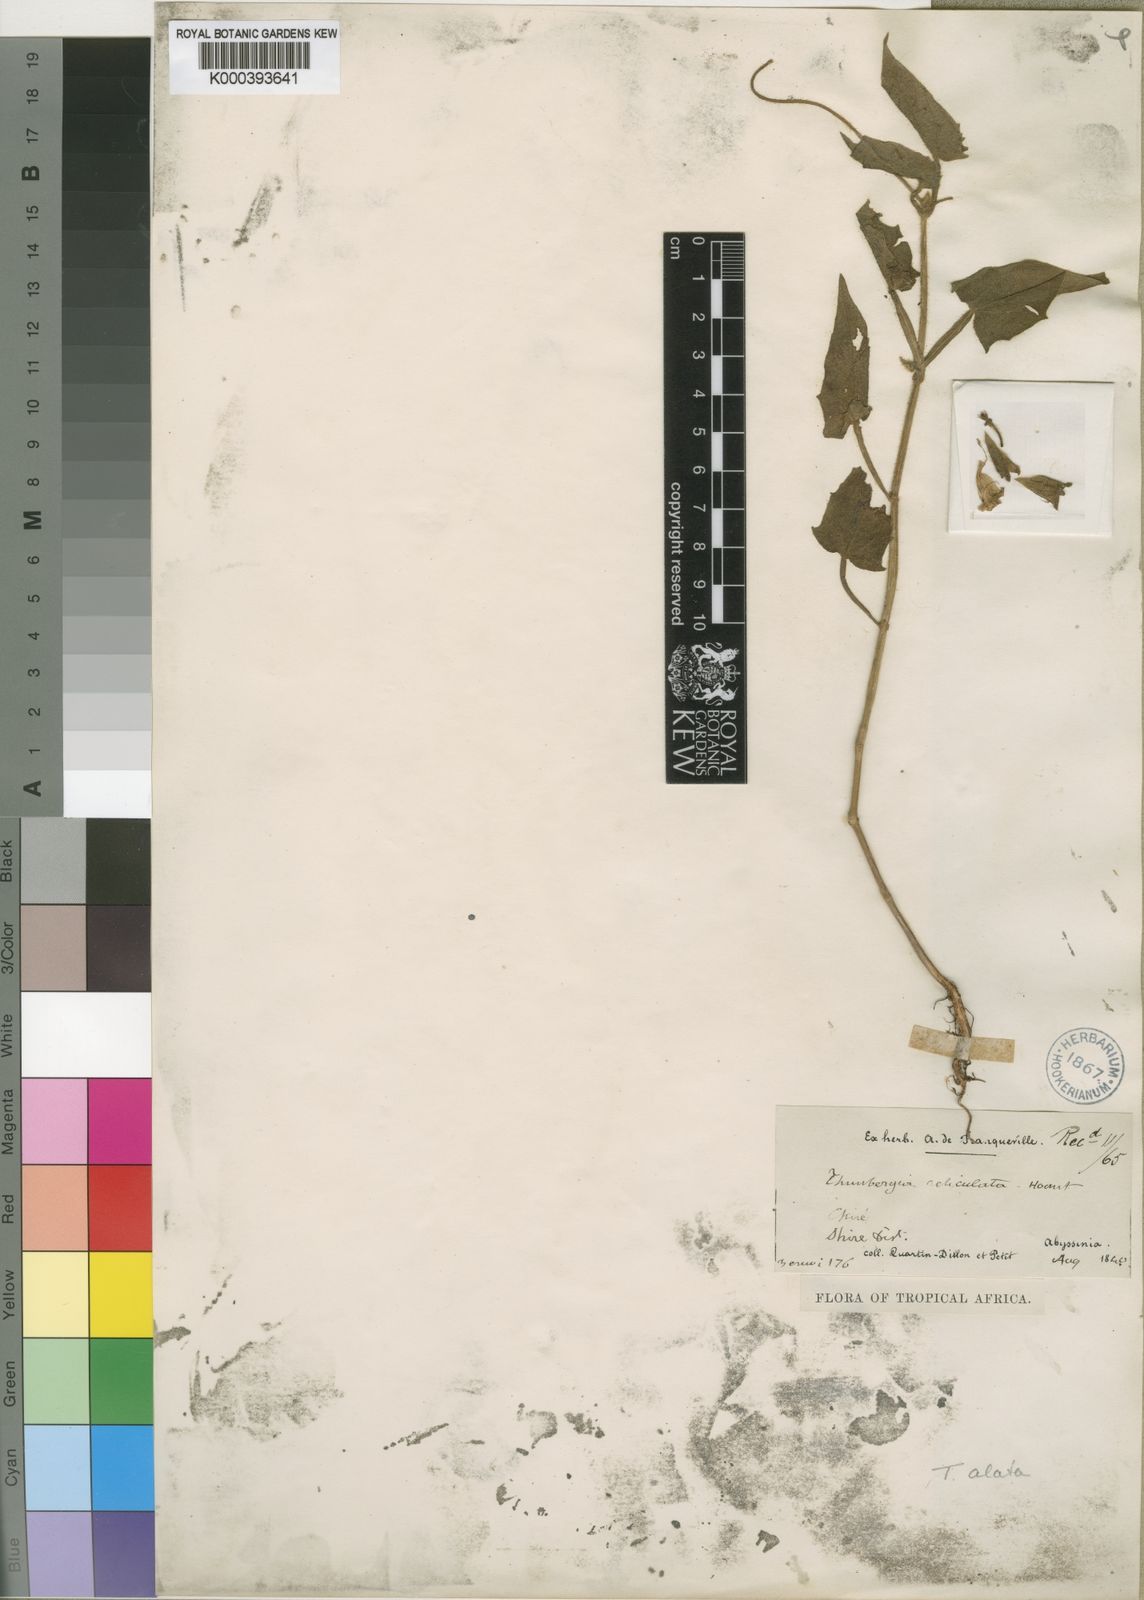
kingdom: Plantae
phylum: Tracheophyta
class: Magnoliopsida
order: Lamiales
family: Acanthaceae
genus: Thunbergia
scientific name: Thunbergia
